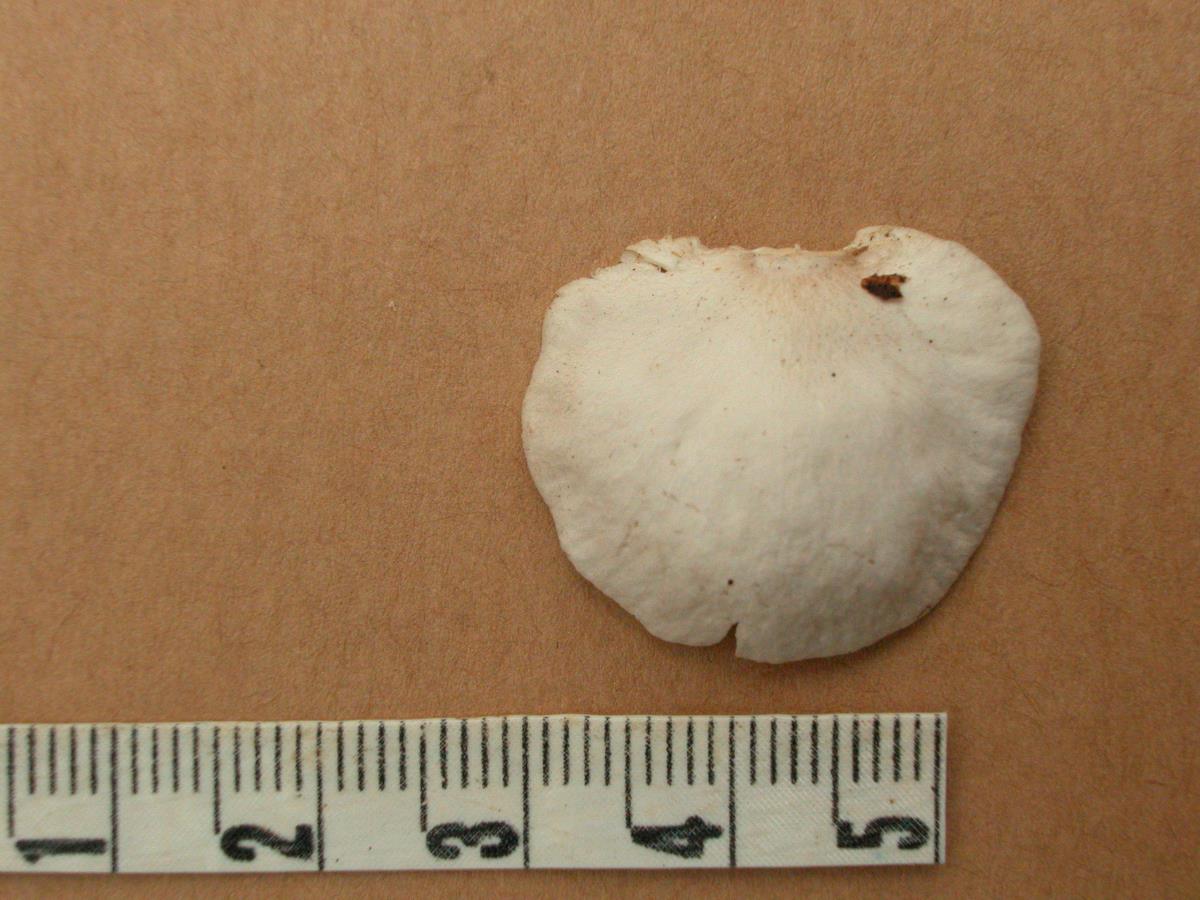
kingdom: Fungi
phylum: Basidiomycota
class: Agaricomycetes
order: Agaricales
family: Pleurotaceae
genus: Pleurotus
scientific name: Pleurotus djamor
